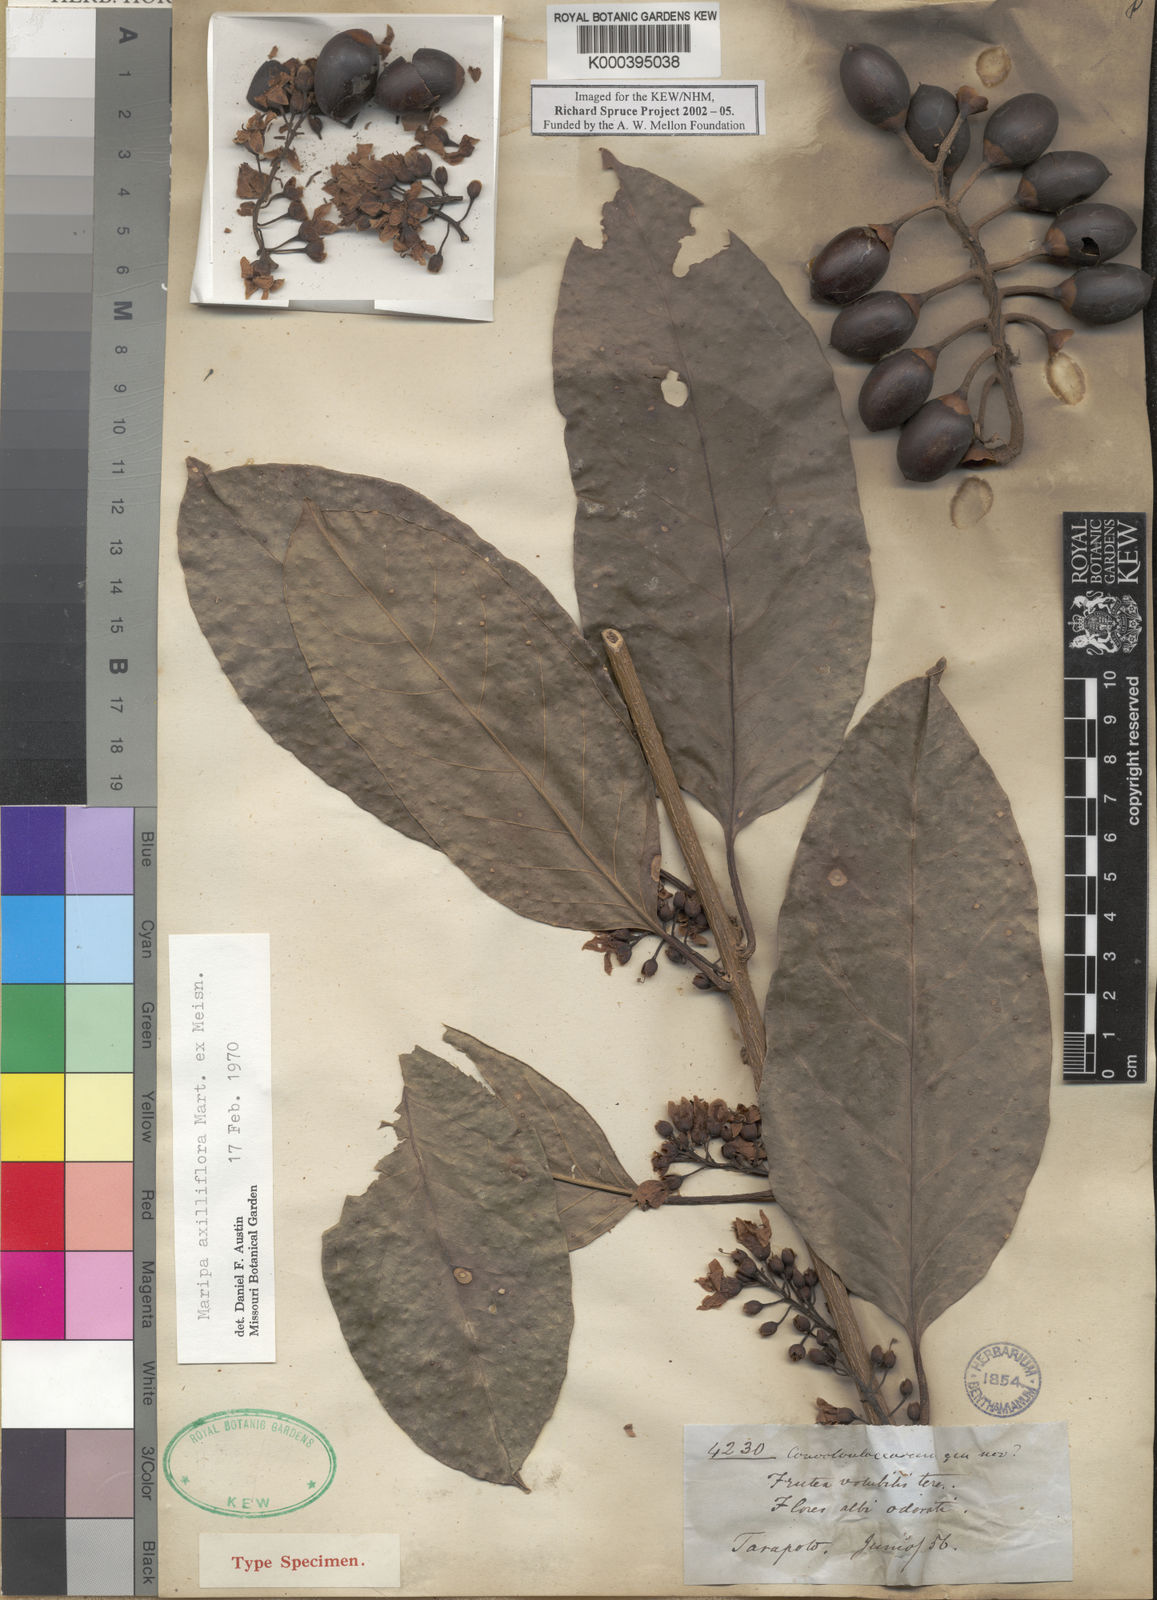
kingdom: Plantae
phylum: Tracheophyta
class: Magnoliopsida
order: Solanales
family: Convolvulaceae
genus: Maripa
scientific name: Maripa axilliflora
